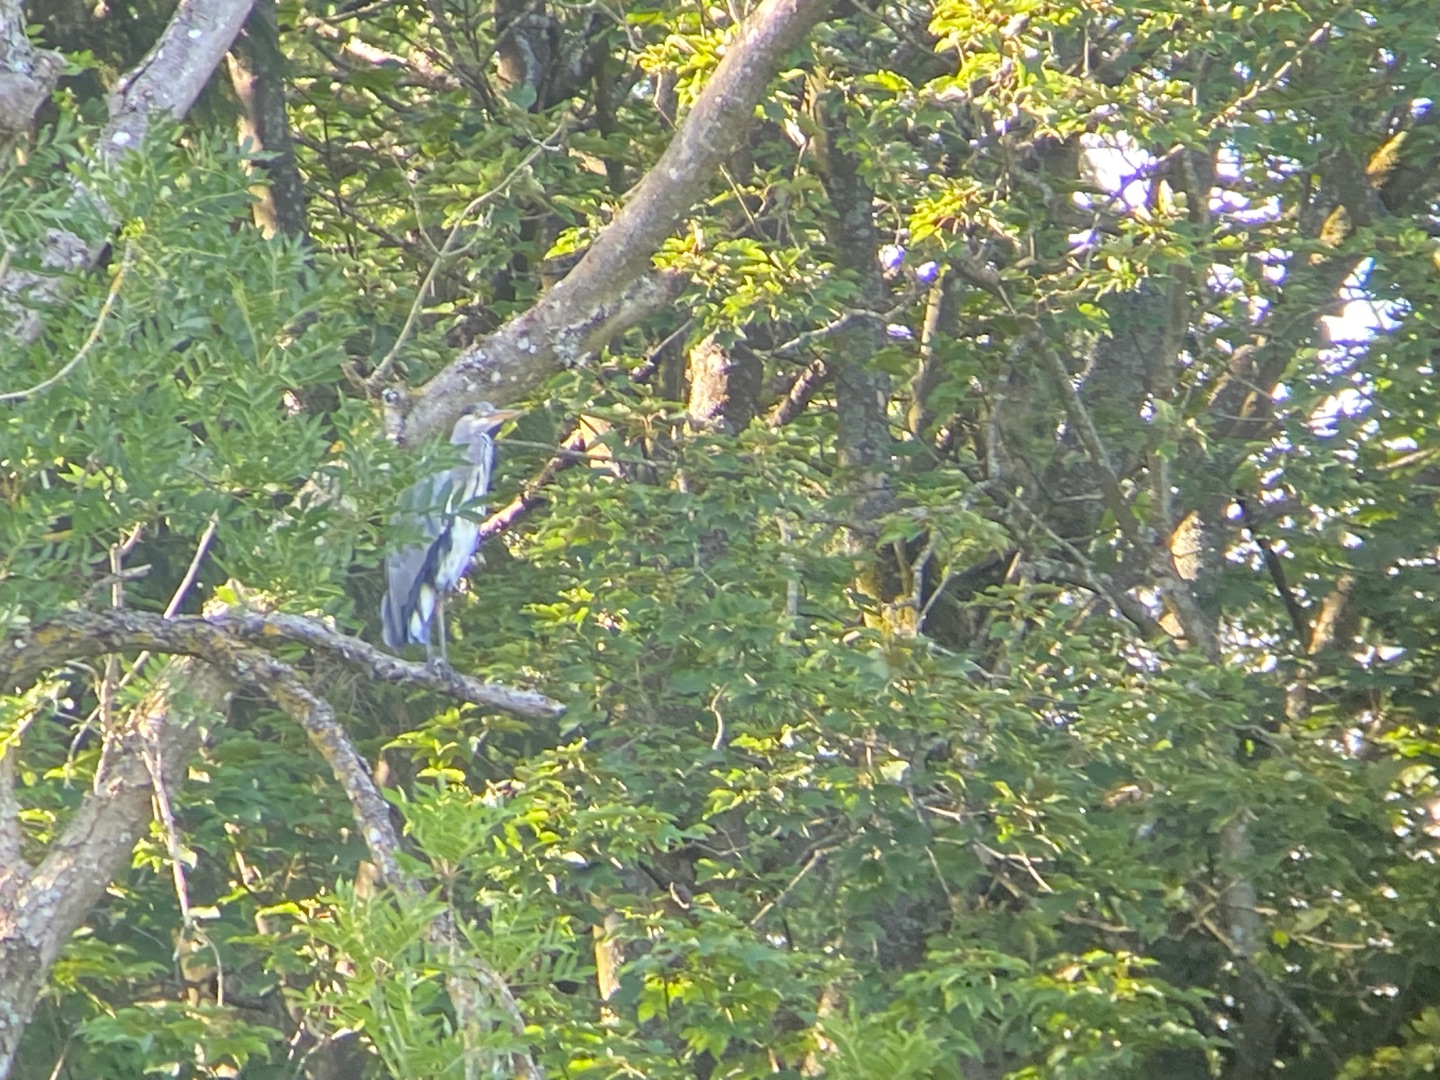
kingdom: Animalia
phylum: Chordata
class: Aves
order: Pelecaniformes
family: Ardeidae
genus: Ardea
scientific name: Ardea cinerea
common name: Fiskehejre
